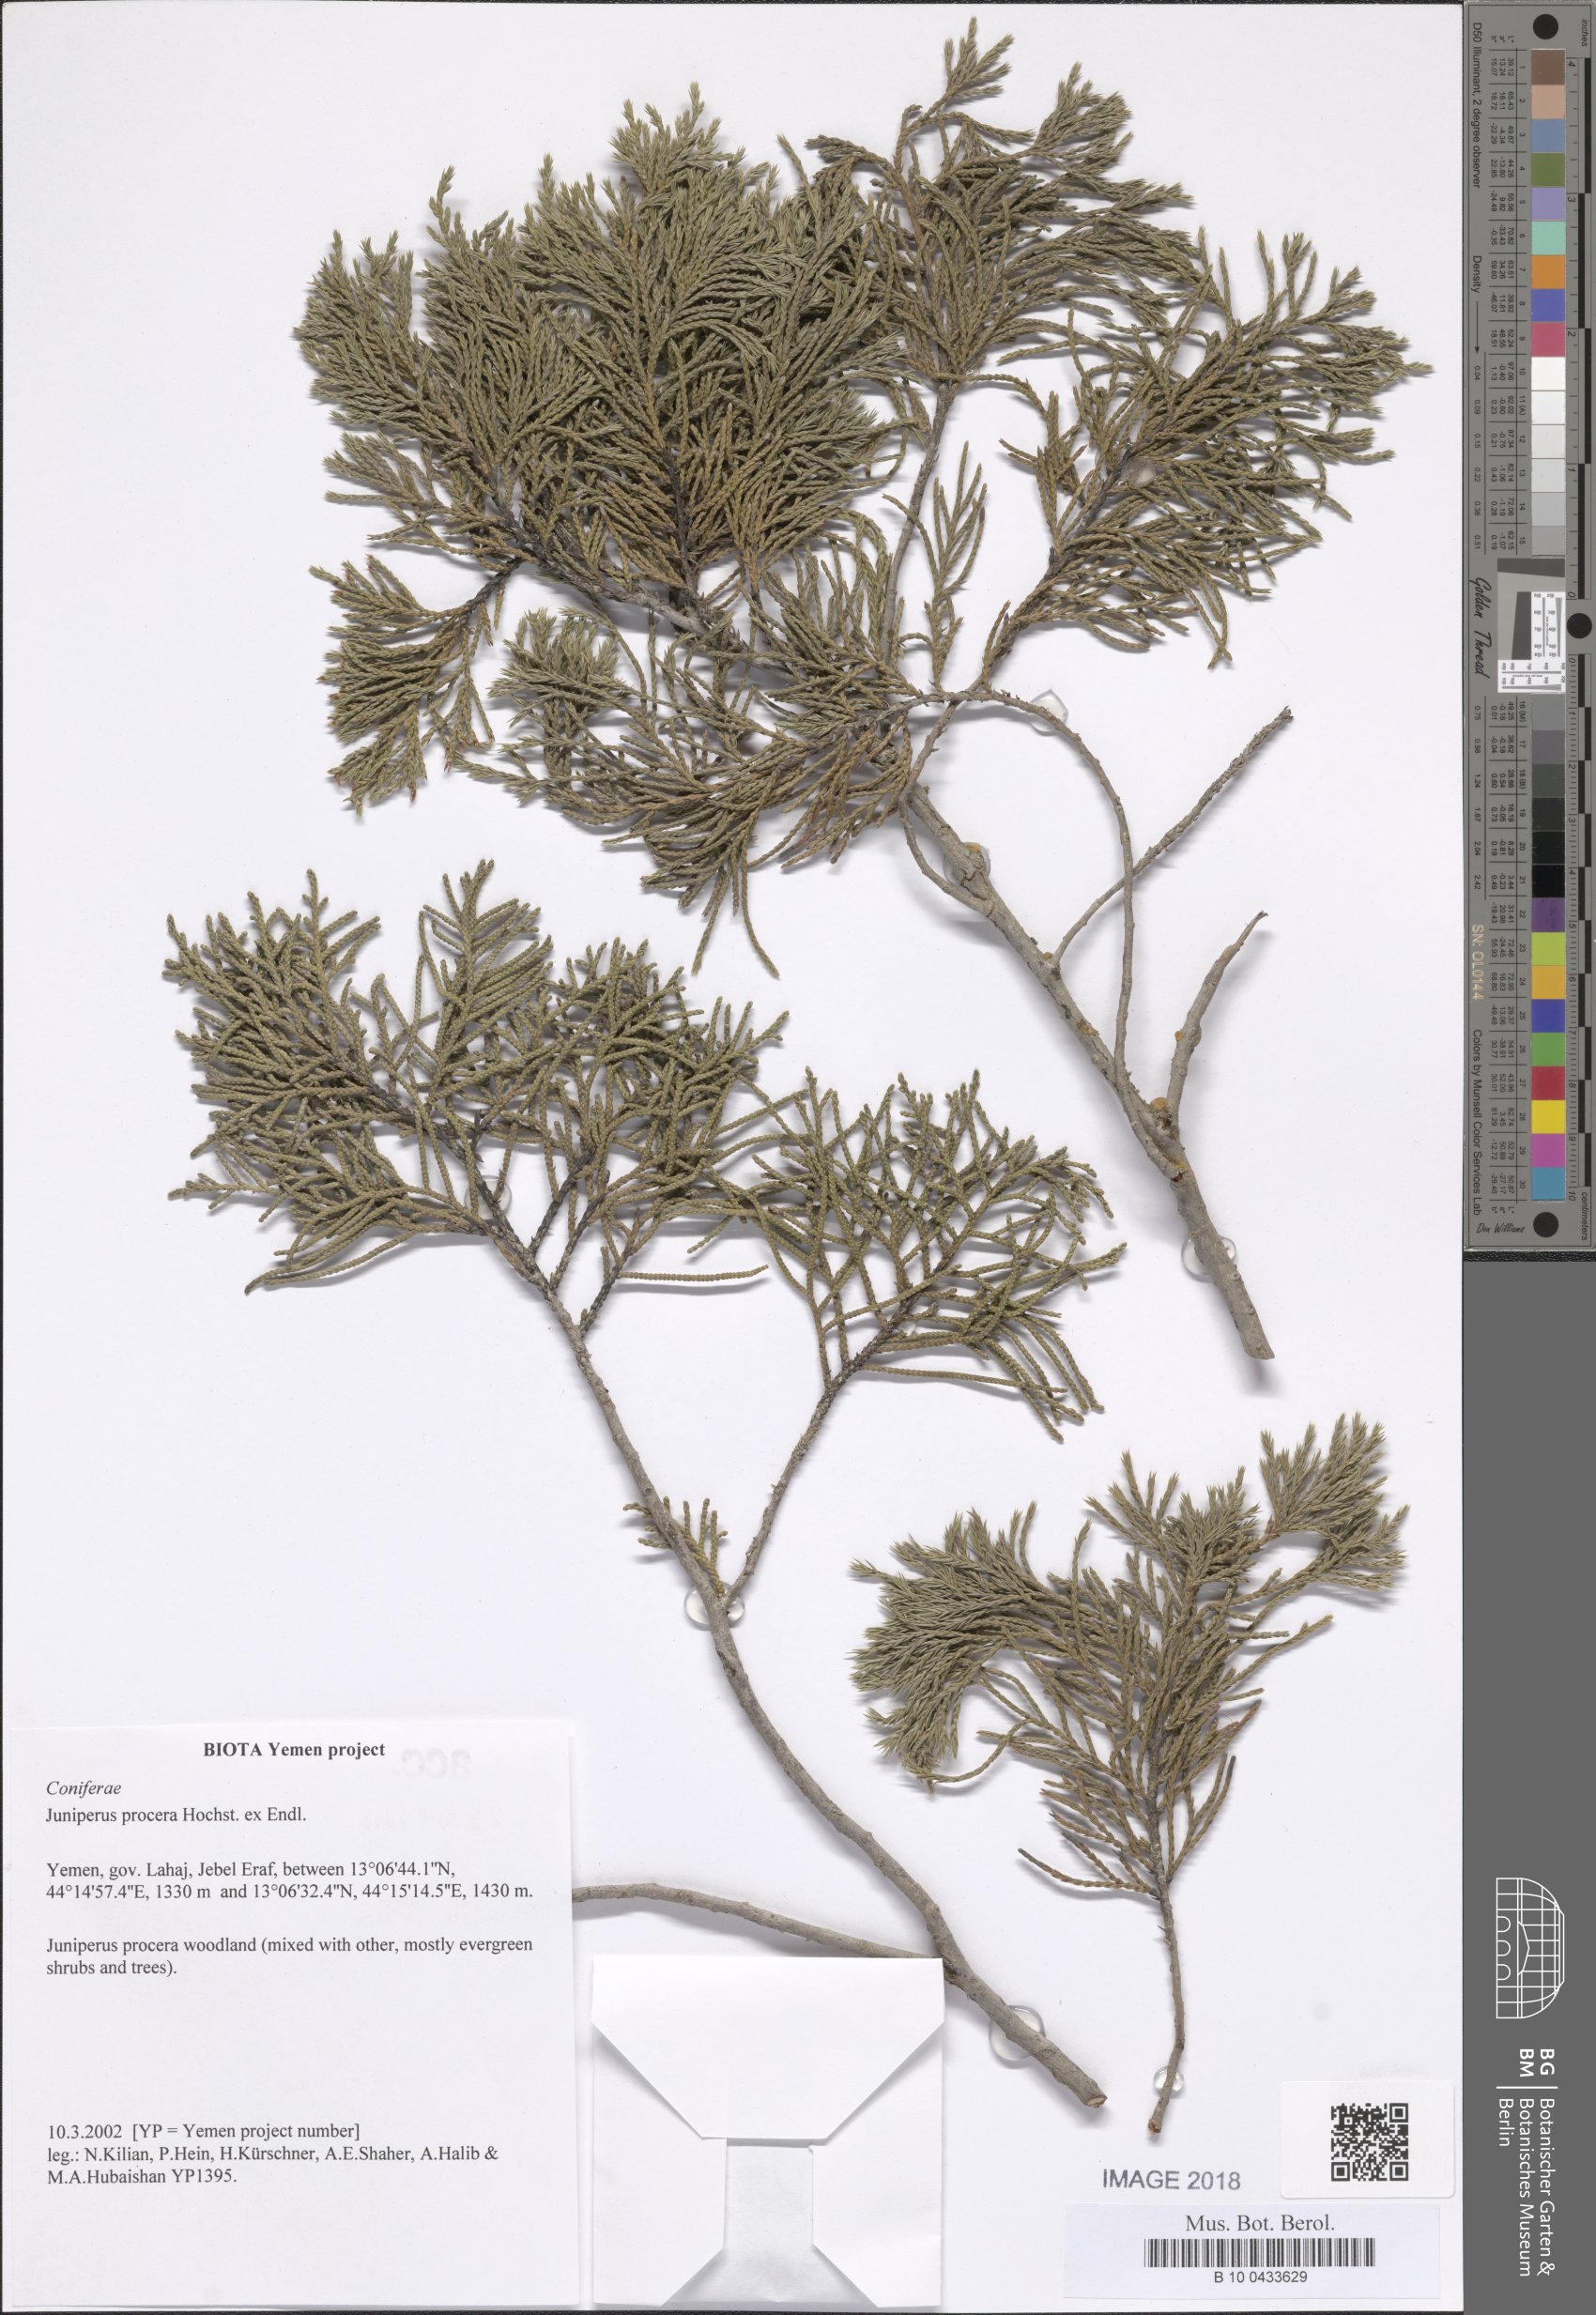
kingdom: Plantae
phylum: Tracheophyta
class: Pinopsida
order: Pinales
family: Cupressaceae
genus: Juniperus
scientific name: Juniperus procera
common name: African juniper
